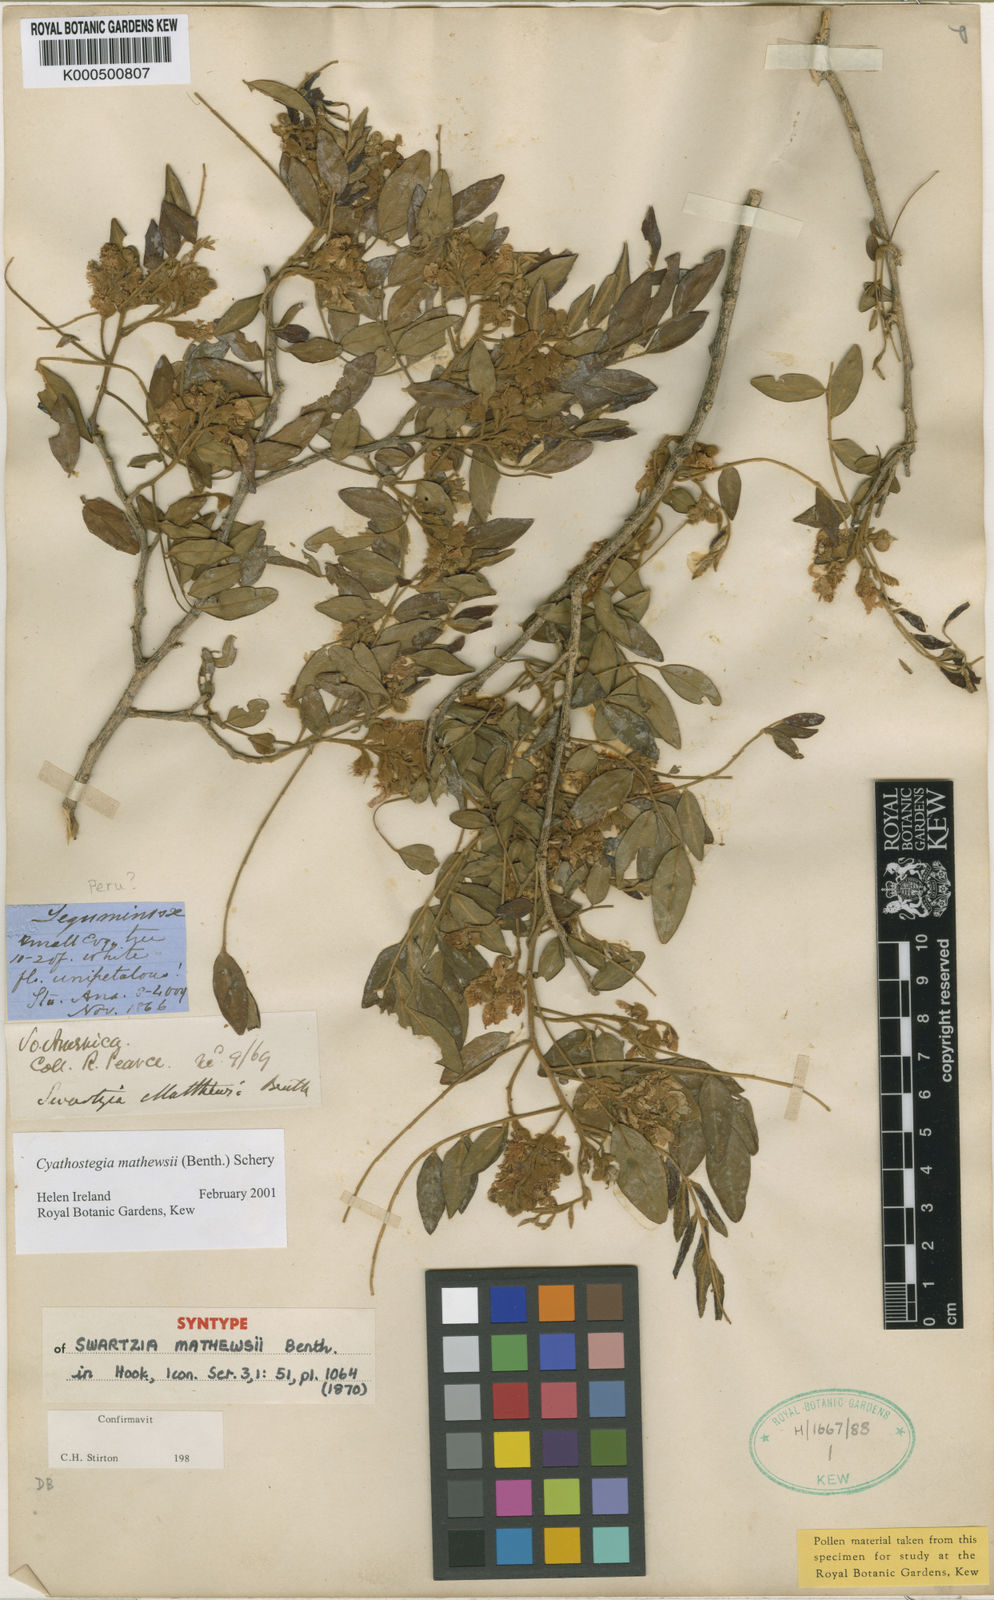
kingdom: Plantae
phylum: Tracheophyta
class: Magnoliopsida
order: Fabales
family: Fabaceae
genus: Cyathostegia
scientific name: Cyathostegia matthewsii
